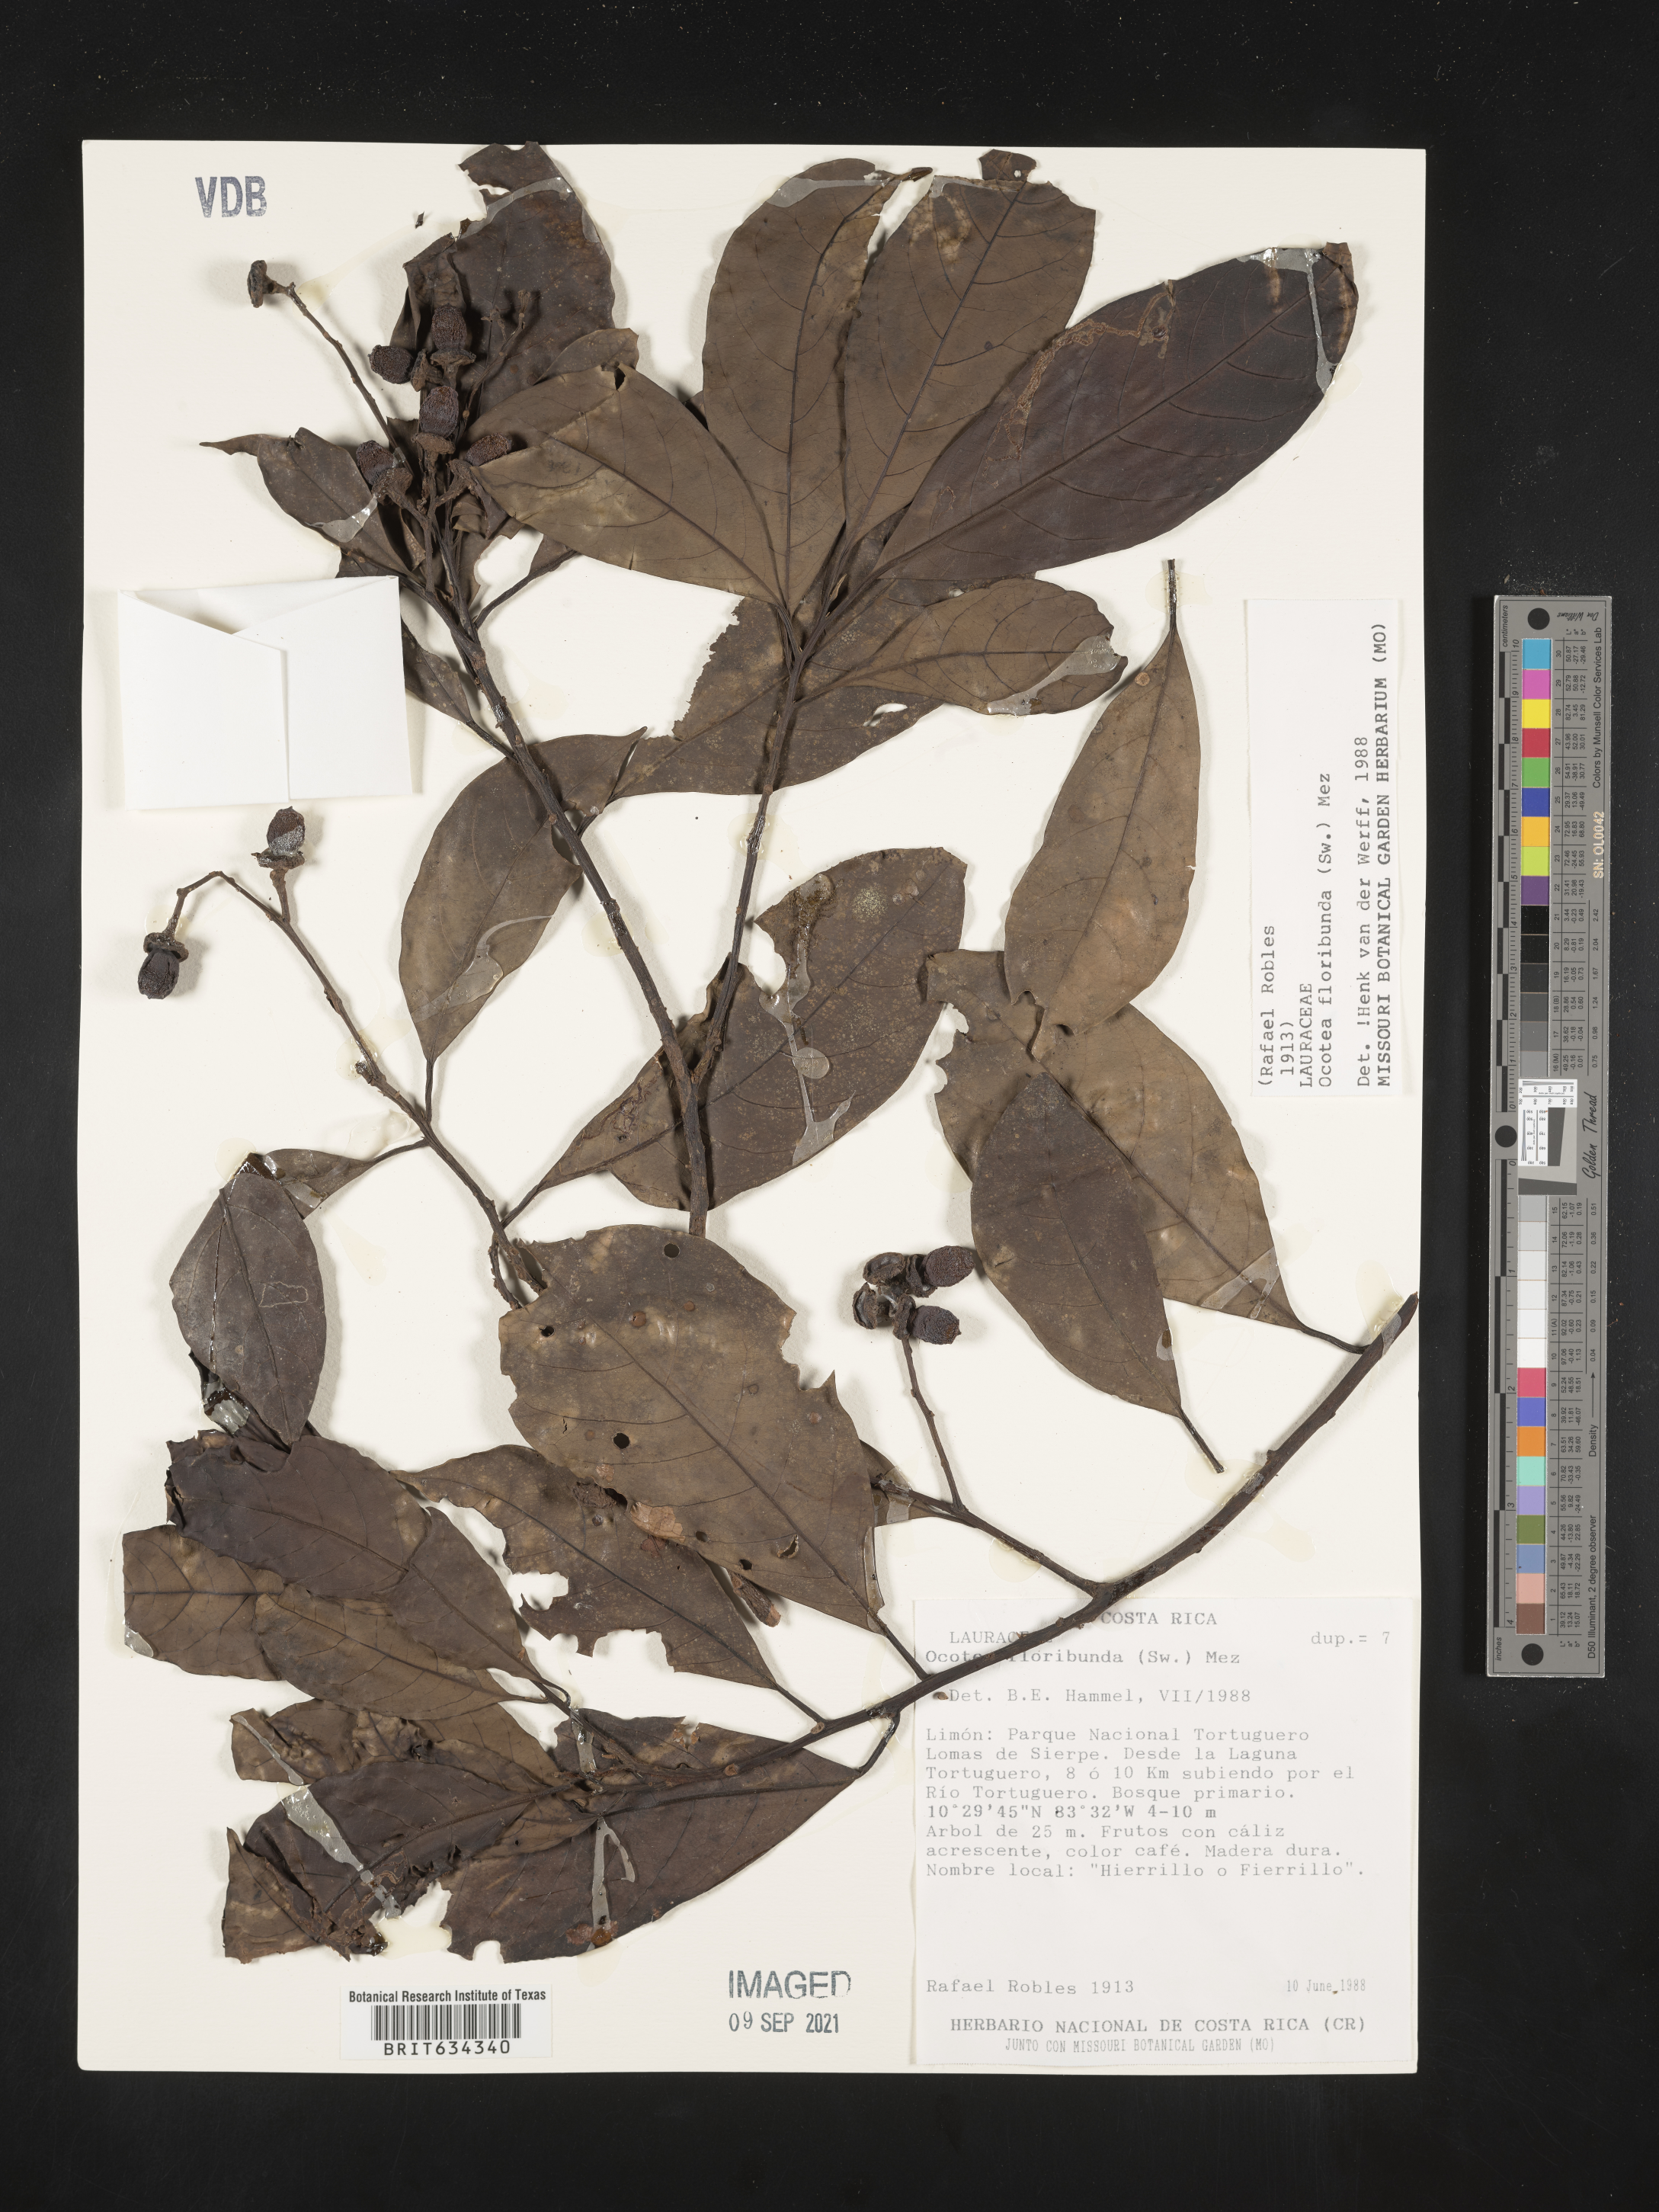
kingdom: Plantae
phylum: Tracheophyta
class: Magnoliopsida
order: Laurales
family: Lauraceae
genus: Ocotea
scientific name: Ocotea
